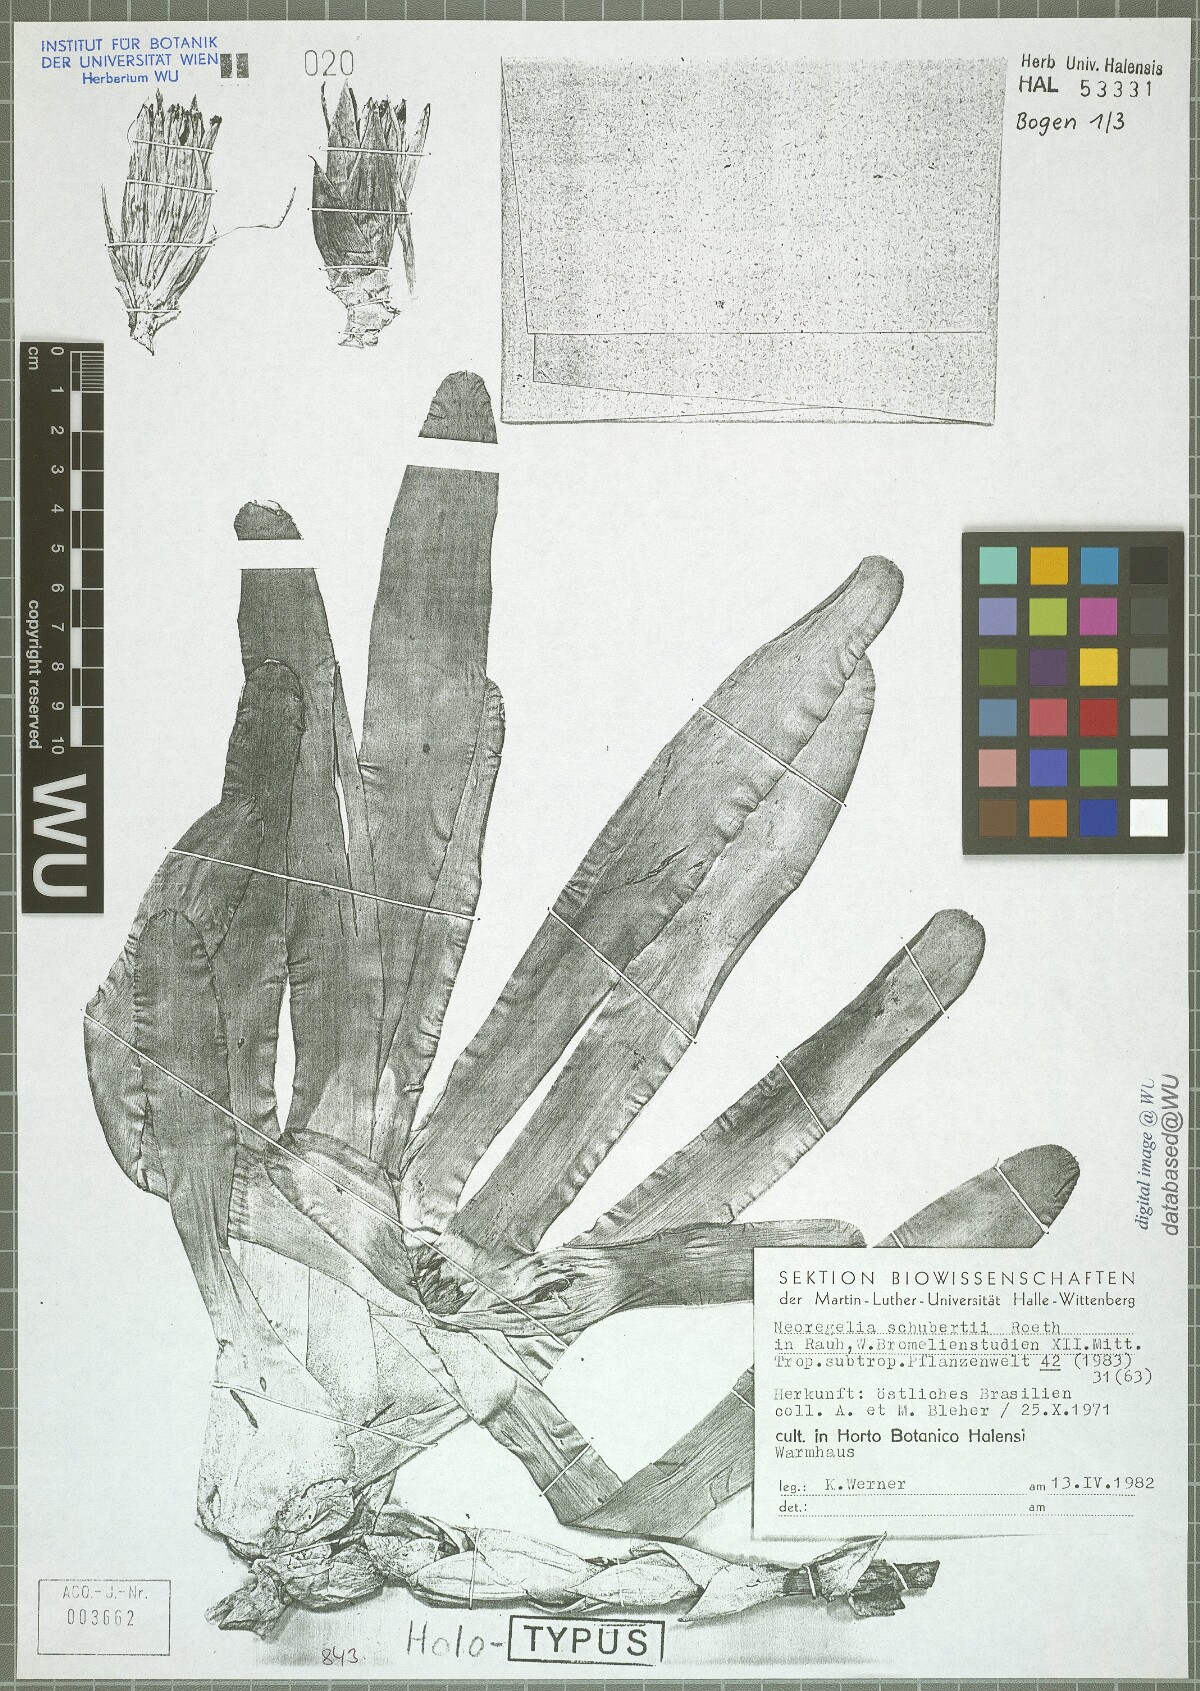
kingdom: Plantae
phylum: Tracheophyta
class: Liliopsida
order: Poales
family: Bromeliaceae
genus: Neoregelia
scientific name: Neoregelia schubertii
